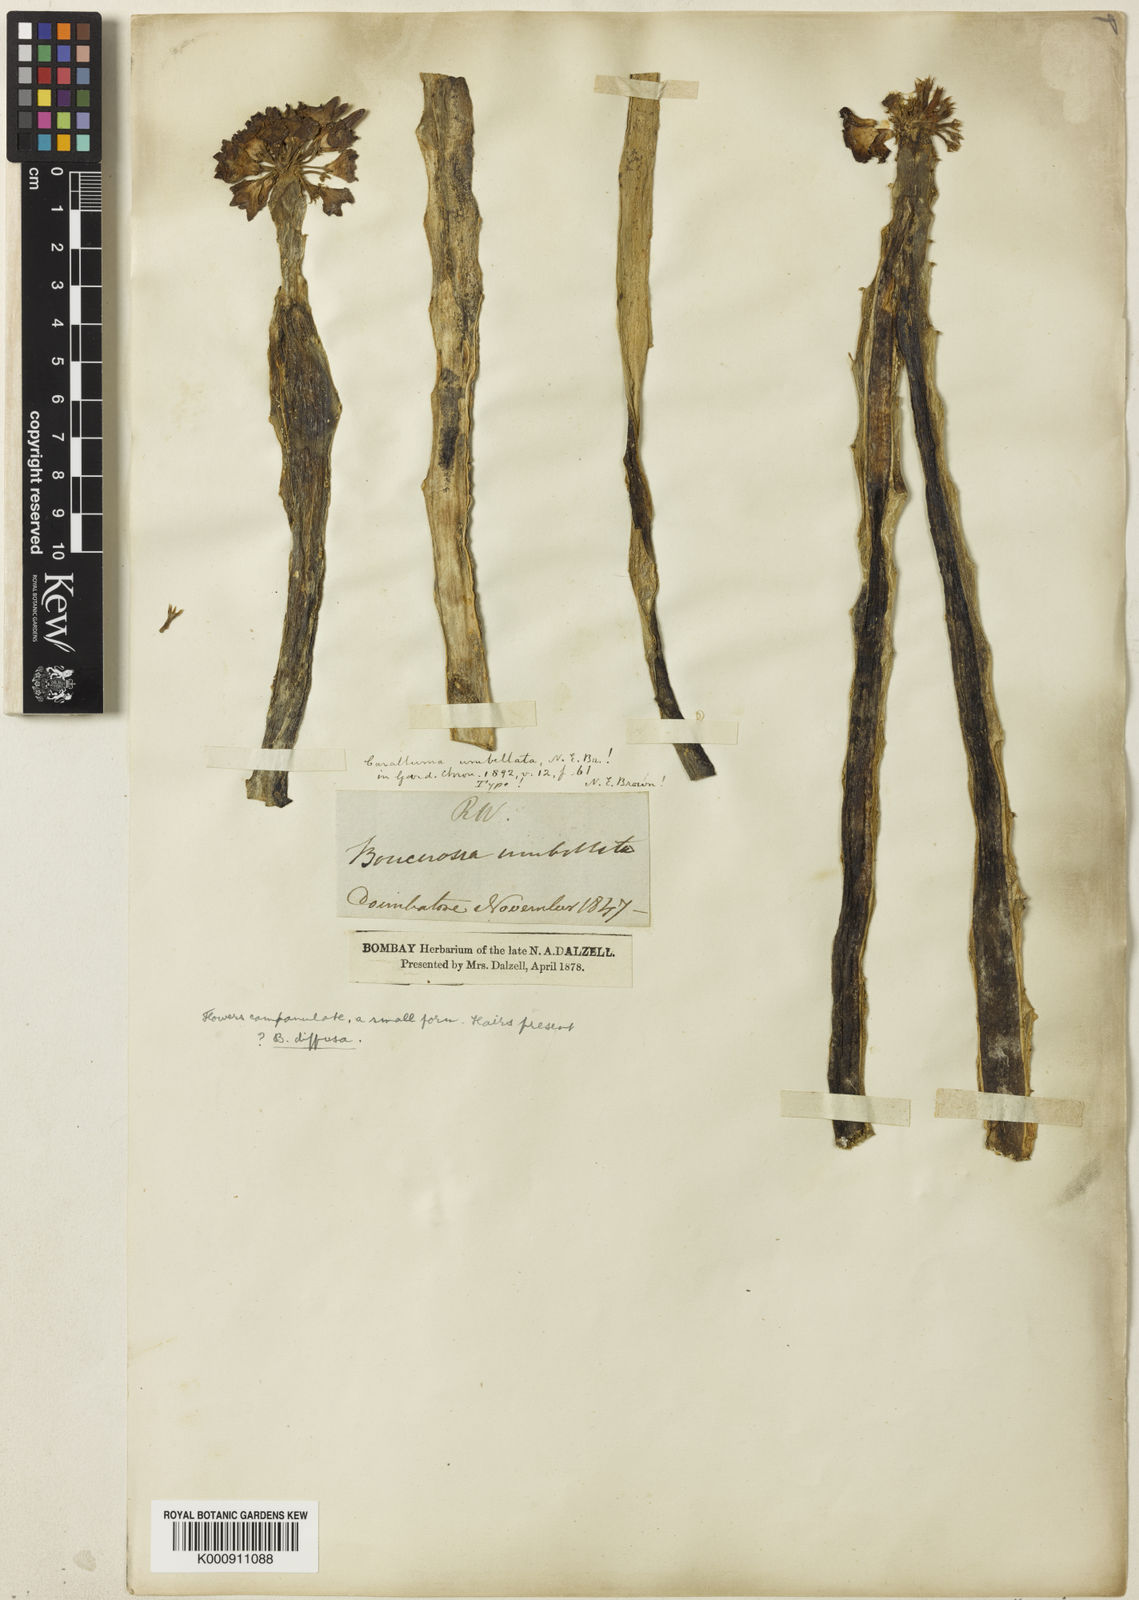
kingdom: Plantae
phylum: Tracheophyta
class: Magnoliopsida
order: Gentianales
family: Apocynaceae
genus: Ceropegia
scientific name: Ceropegia umbellata
